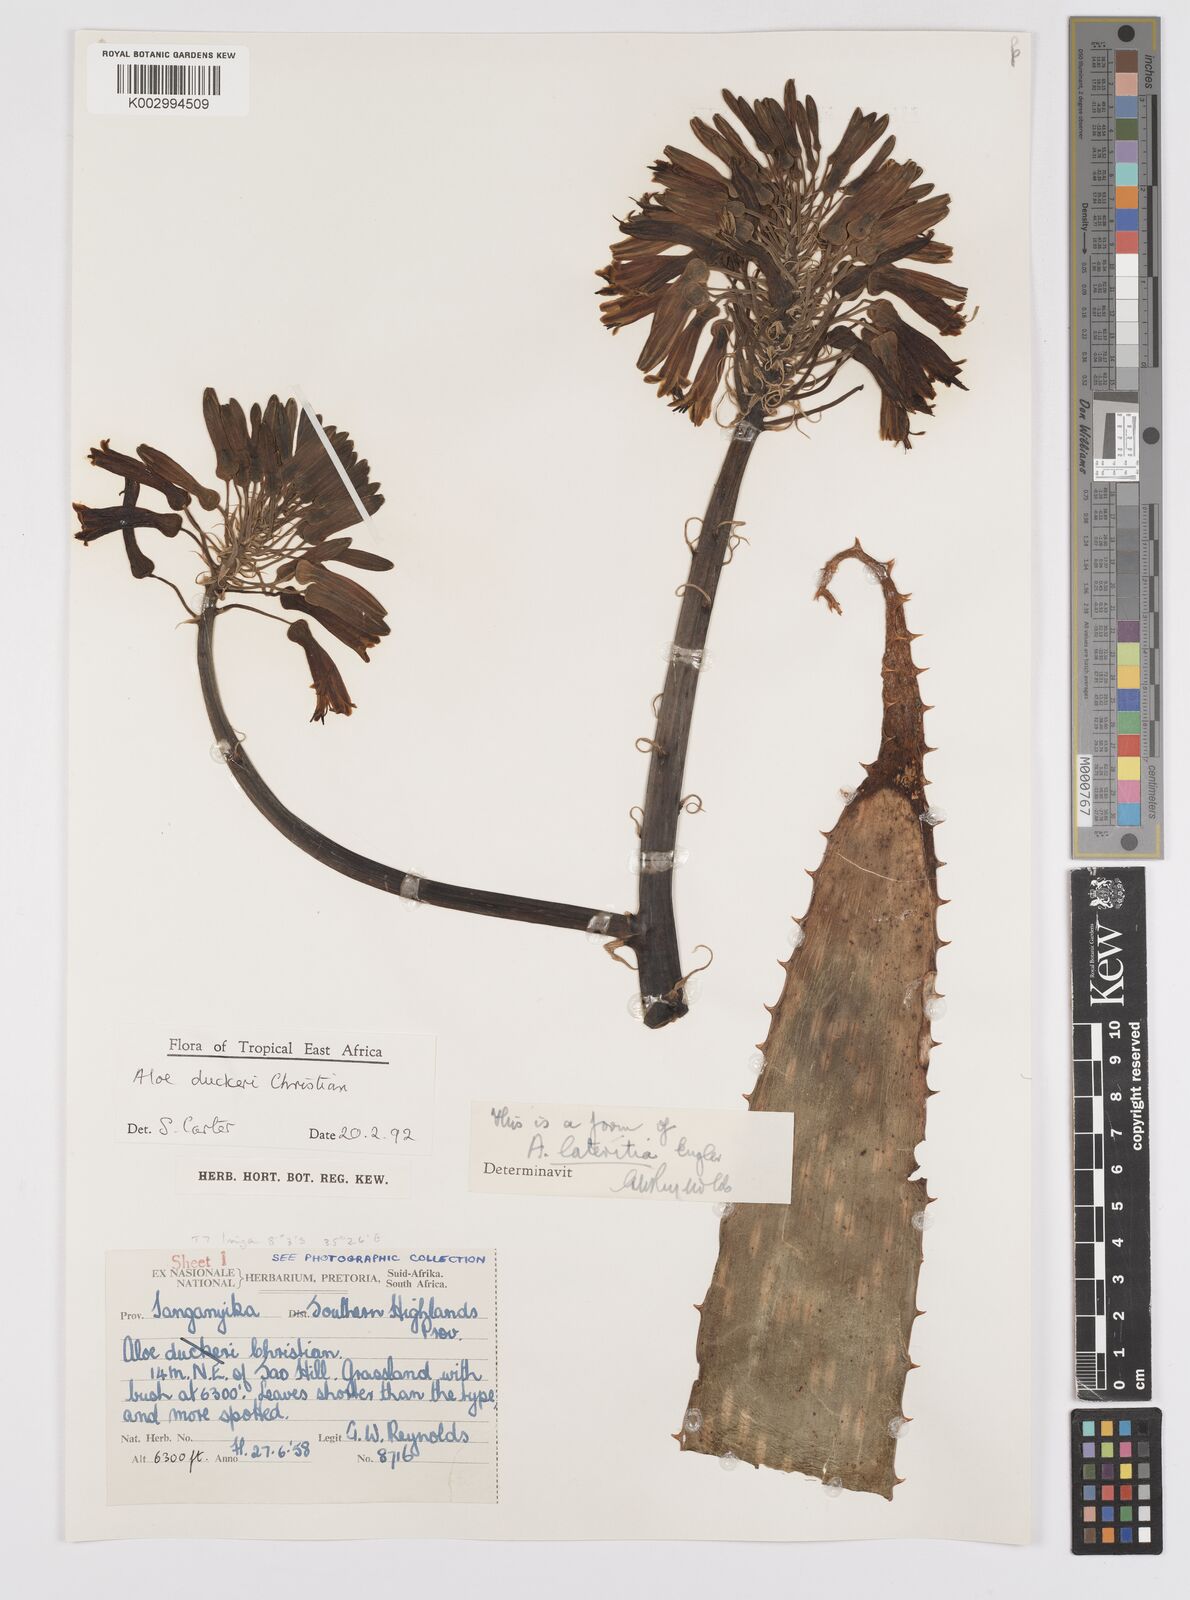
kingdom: Plantae
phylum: Tracheophyta
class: Liliopsida
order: Asparagales
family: Asphodelaceae
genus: Aloe
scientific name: Aloe duckeri
